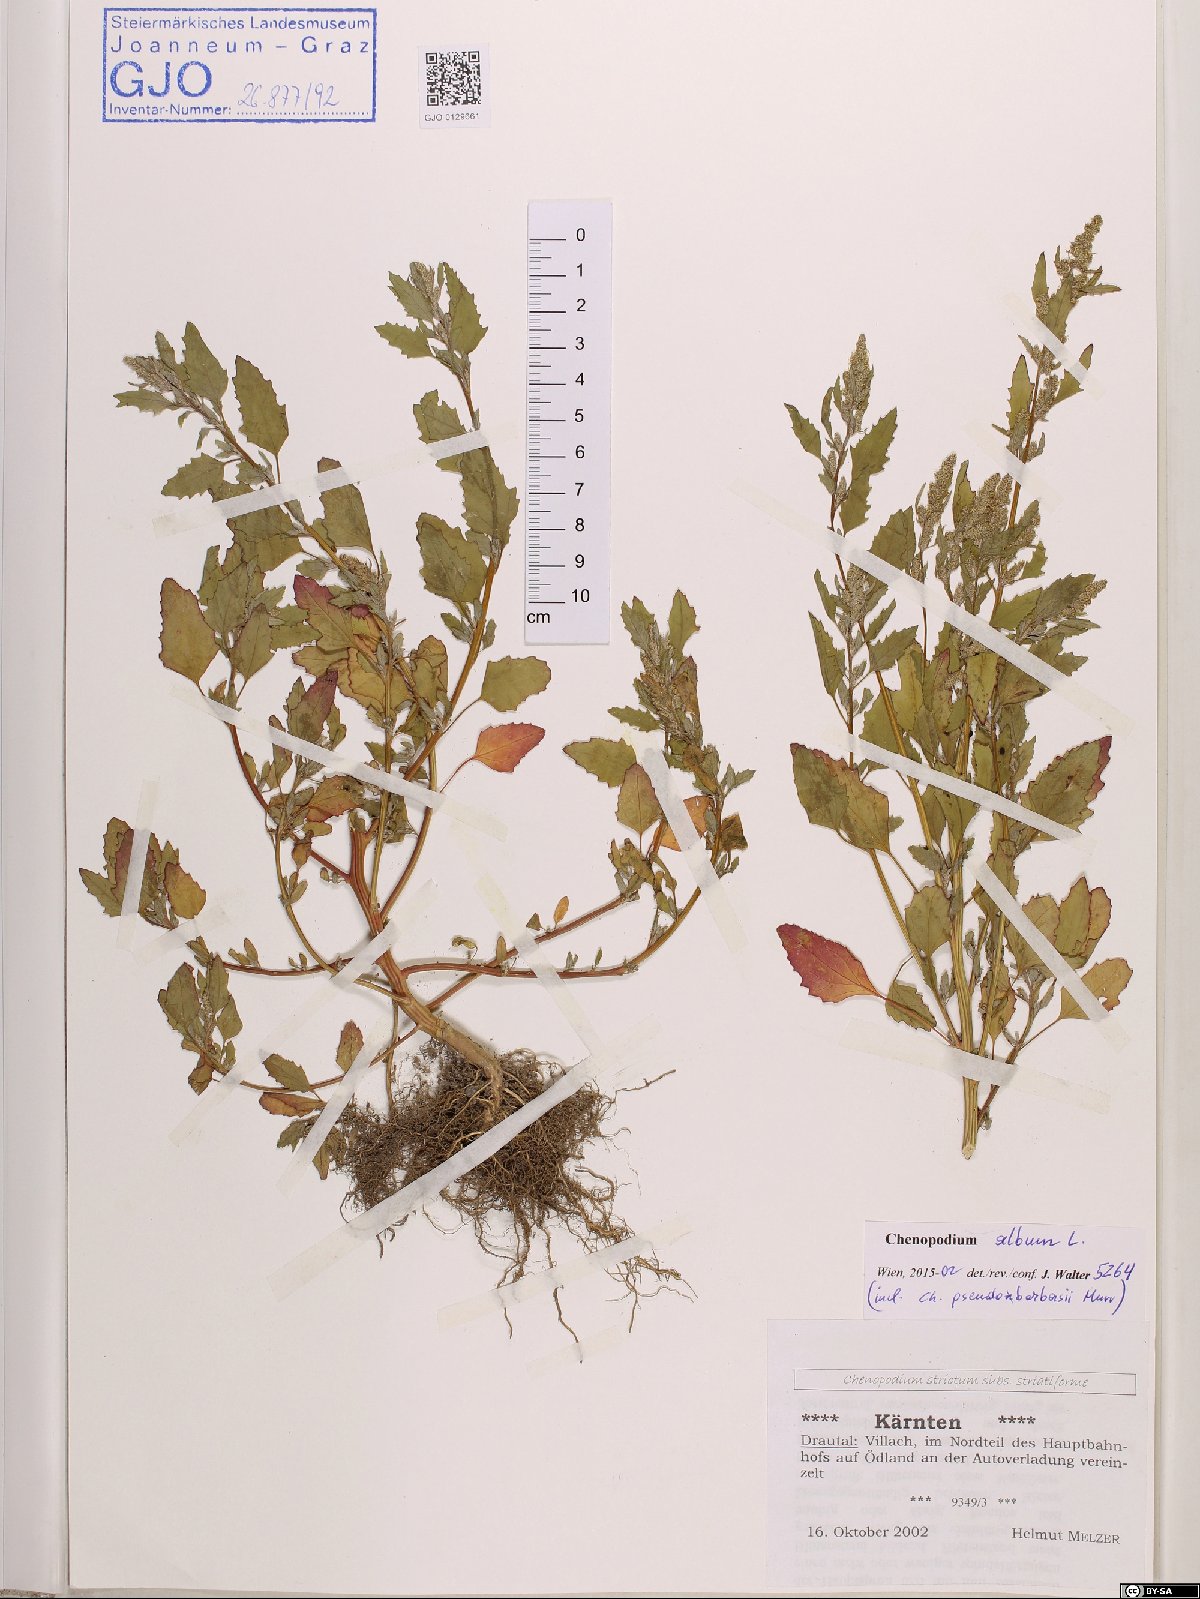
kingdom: Plantae
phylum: Tracheophyta
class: Magnoliopsida
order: Caryophyllales
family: Amaranthaceae
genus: Chenopodium
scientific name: Chenopodium album
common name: Fat-hen
